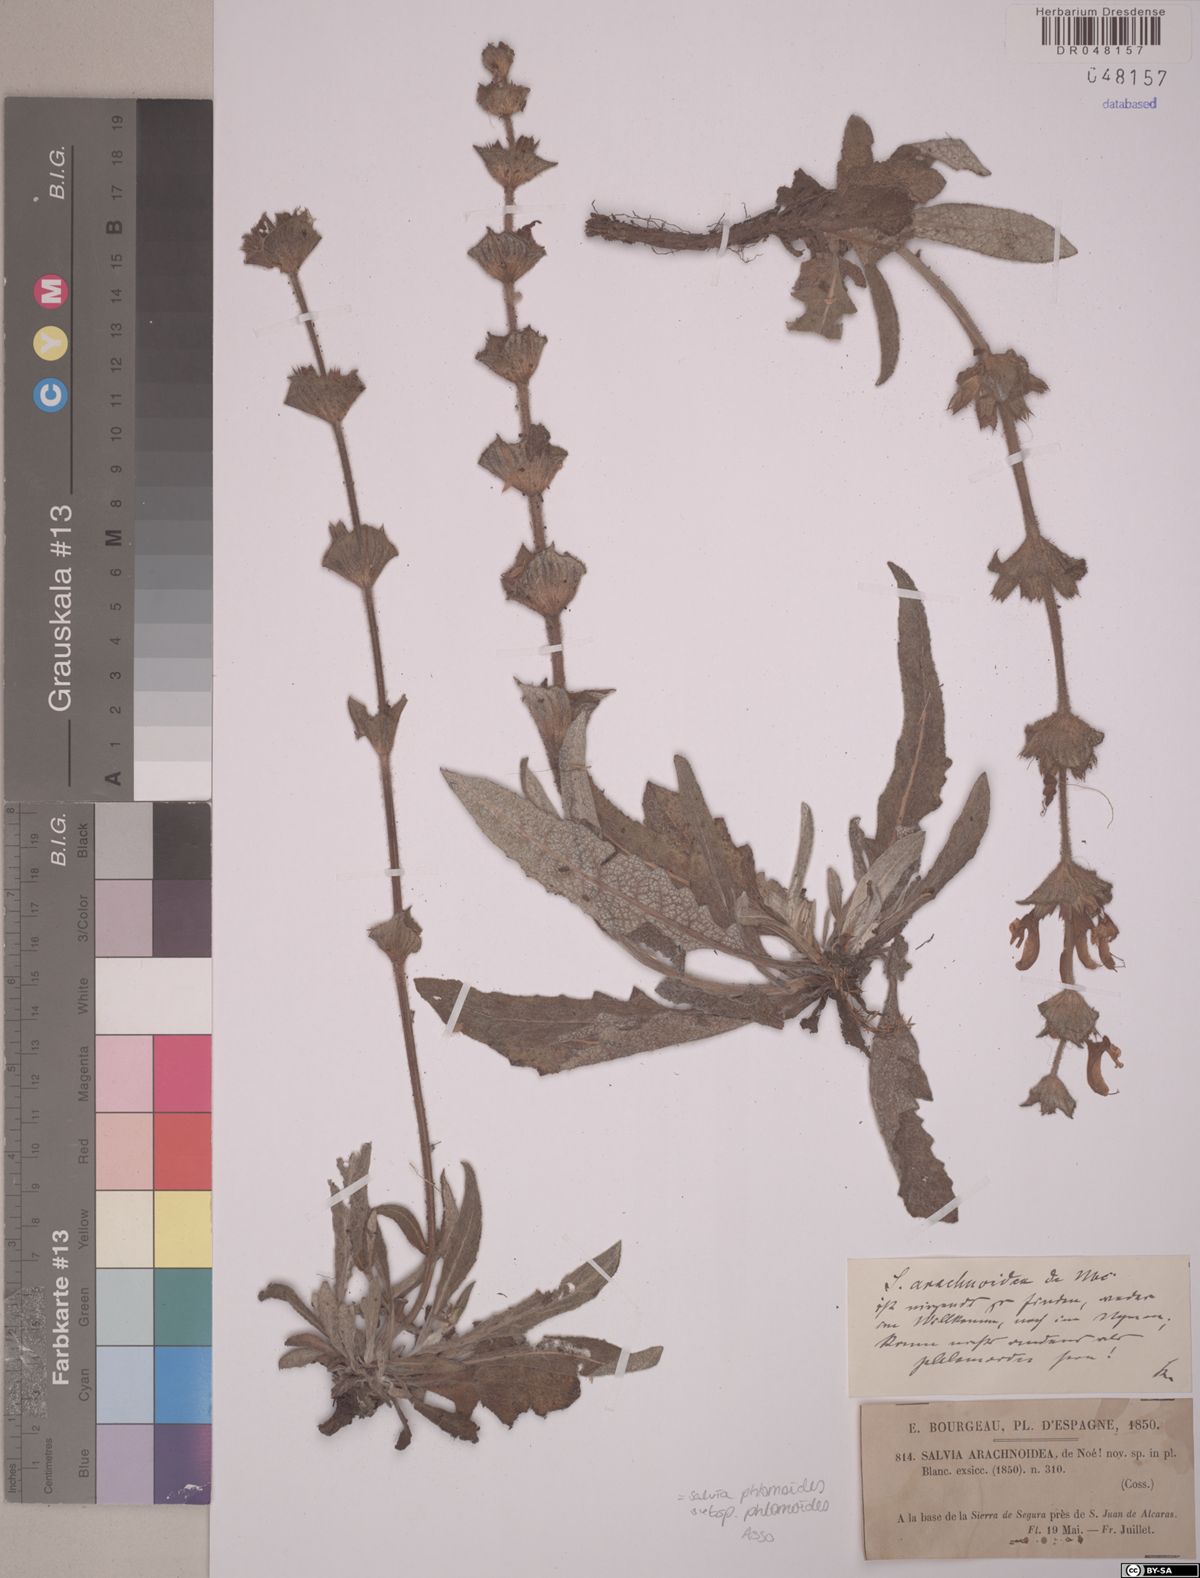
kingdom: Plantae
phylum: Tracheophyta
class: Magnoliopsida
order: Lamiales
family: Lamiaceae
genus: Salvia
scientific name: Salvia phlomoides
